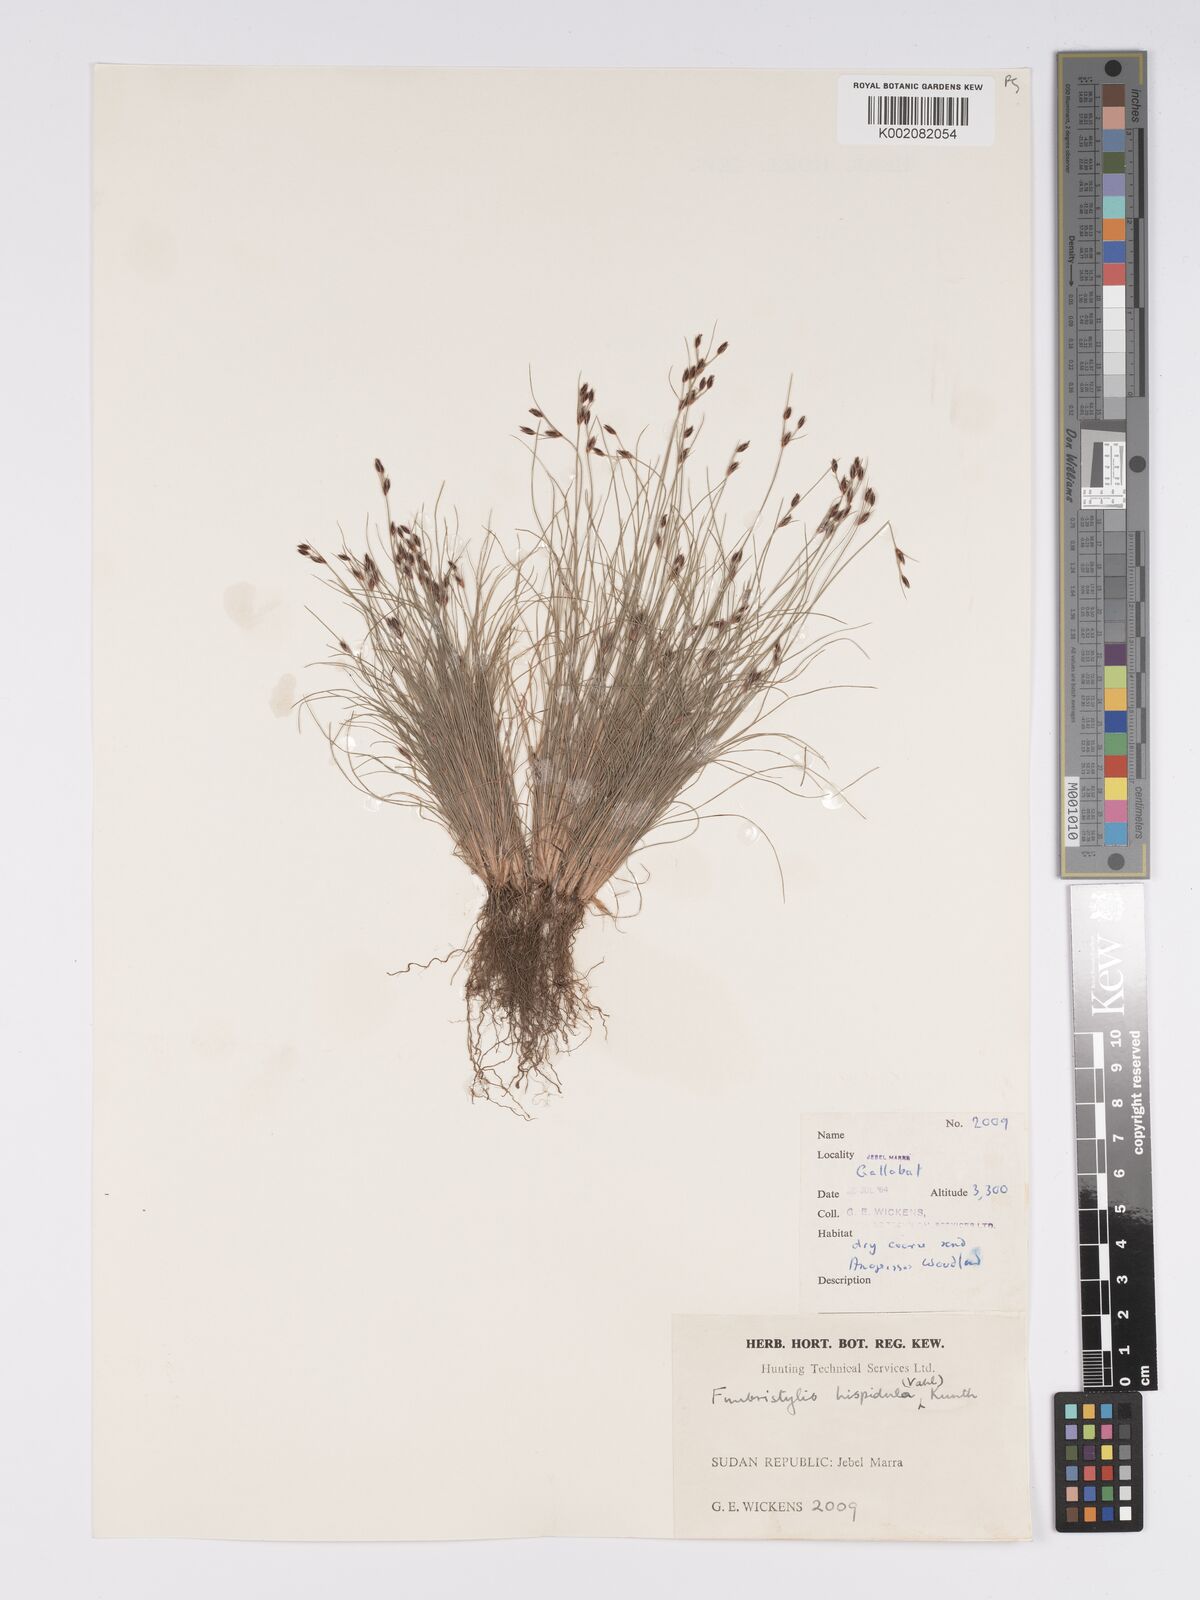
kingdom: Plantae
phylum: Tracheophyta
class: Liliopsida
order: Poales
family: Cyperaceae
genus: Bulbostylis
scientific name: Bulbostylis hispidula
